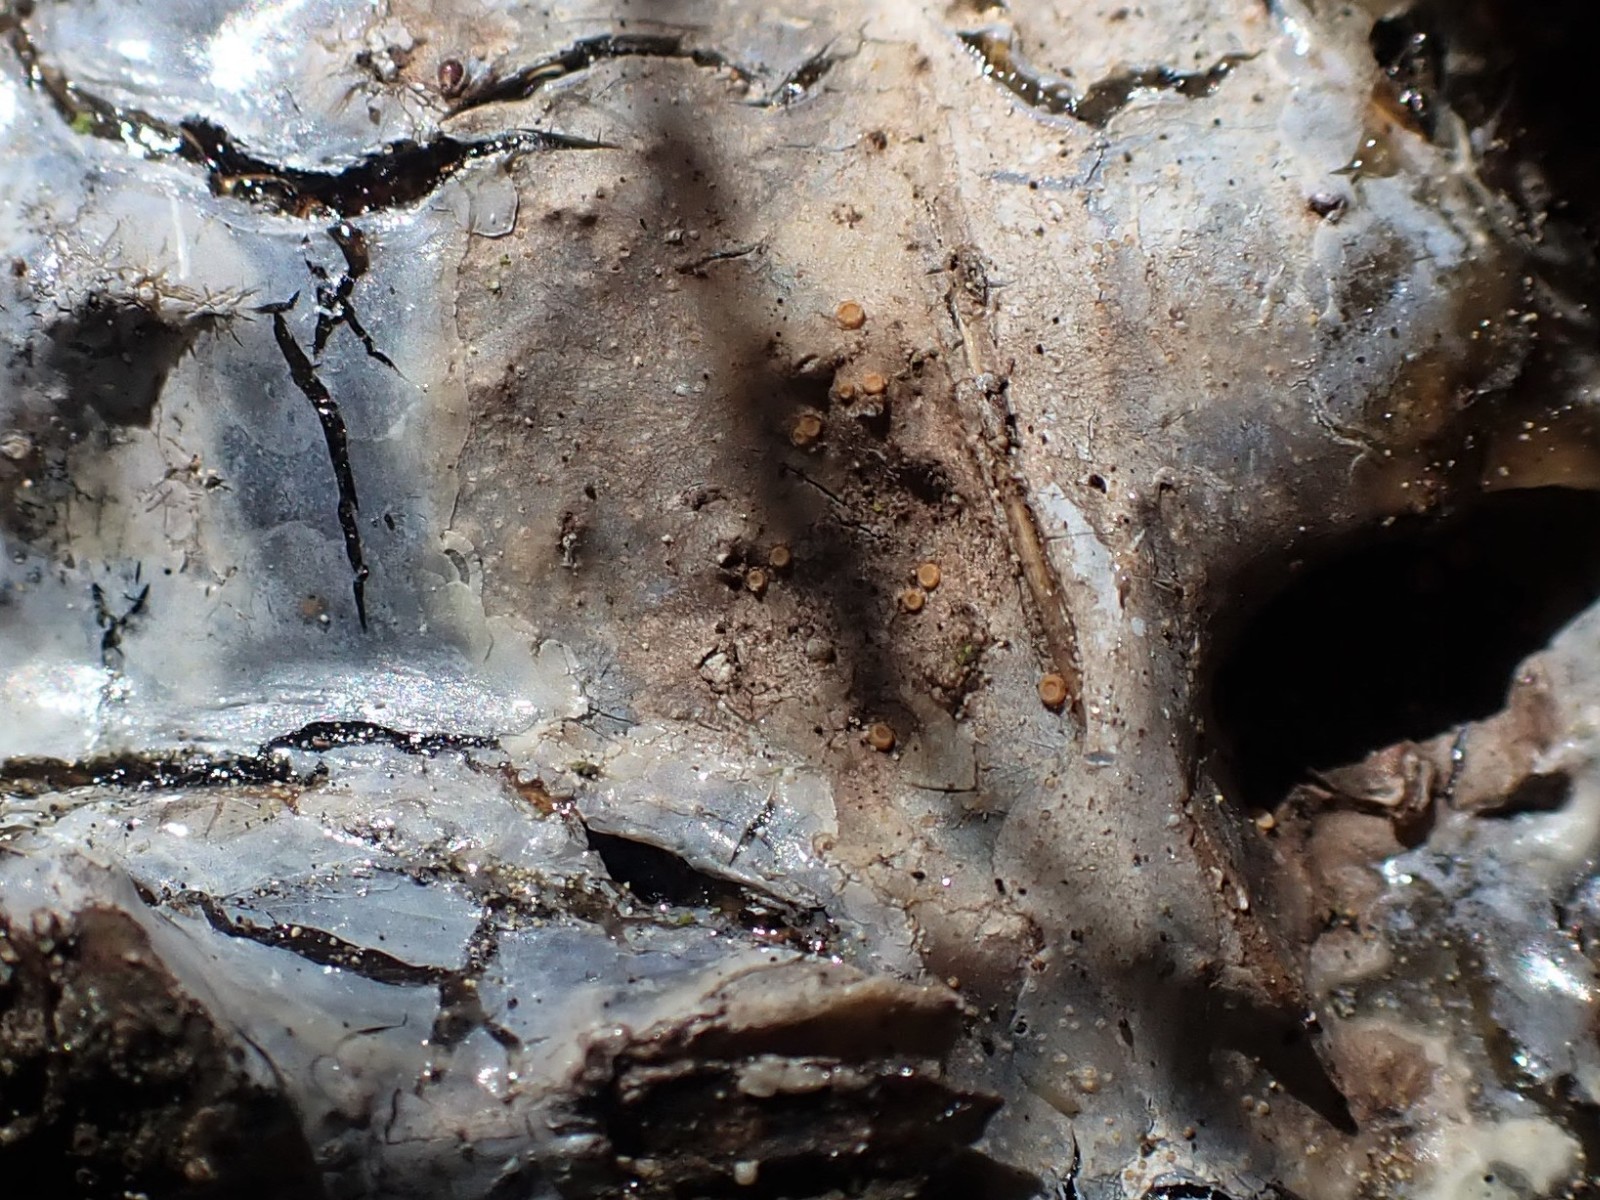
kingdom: Fungi
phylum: Ascomycota
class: Sareomycetes
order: Sareales
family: Sareaceae
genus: Sarea
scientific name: Sarea resinae
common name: orangegul harpiksskive
